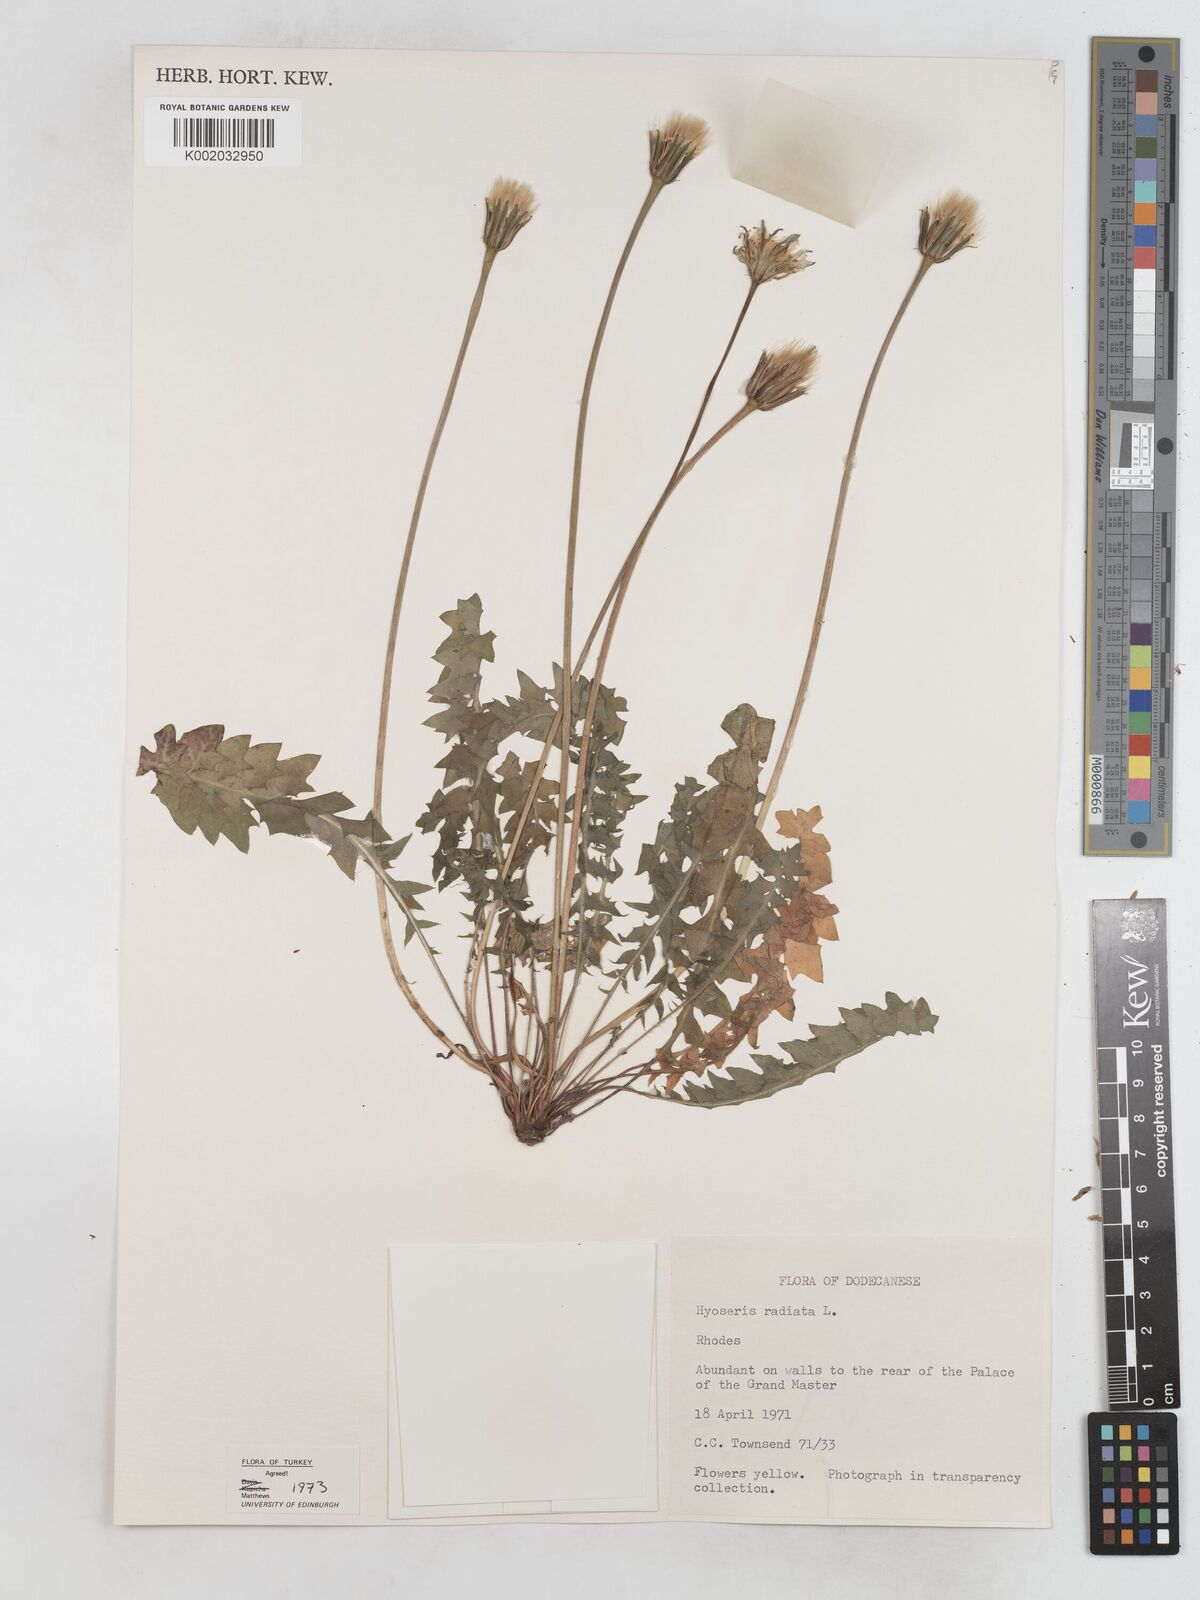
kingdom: Plantae
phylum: Tracheophyta
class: Magnoliopsida
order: Asterales
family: Asteraceae
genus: Hyoseris
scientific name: Hyoseris radiata
